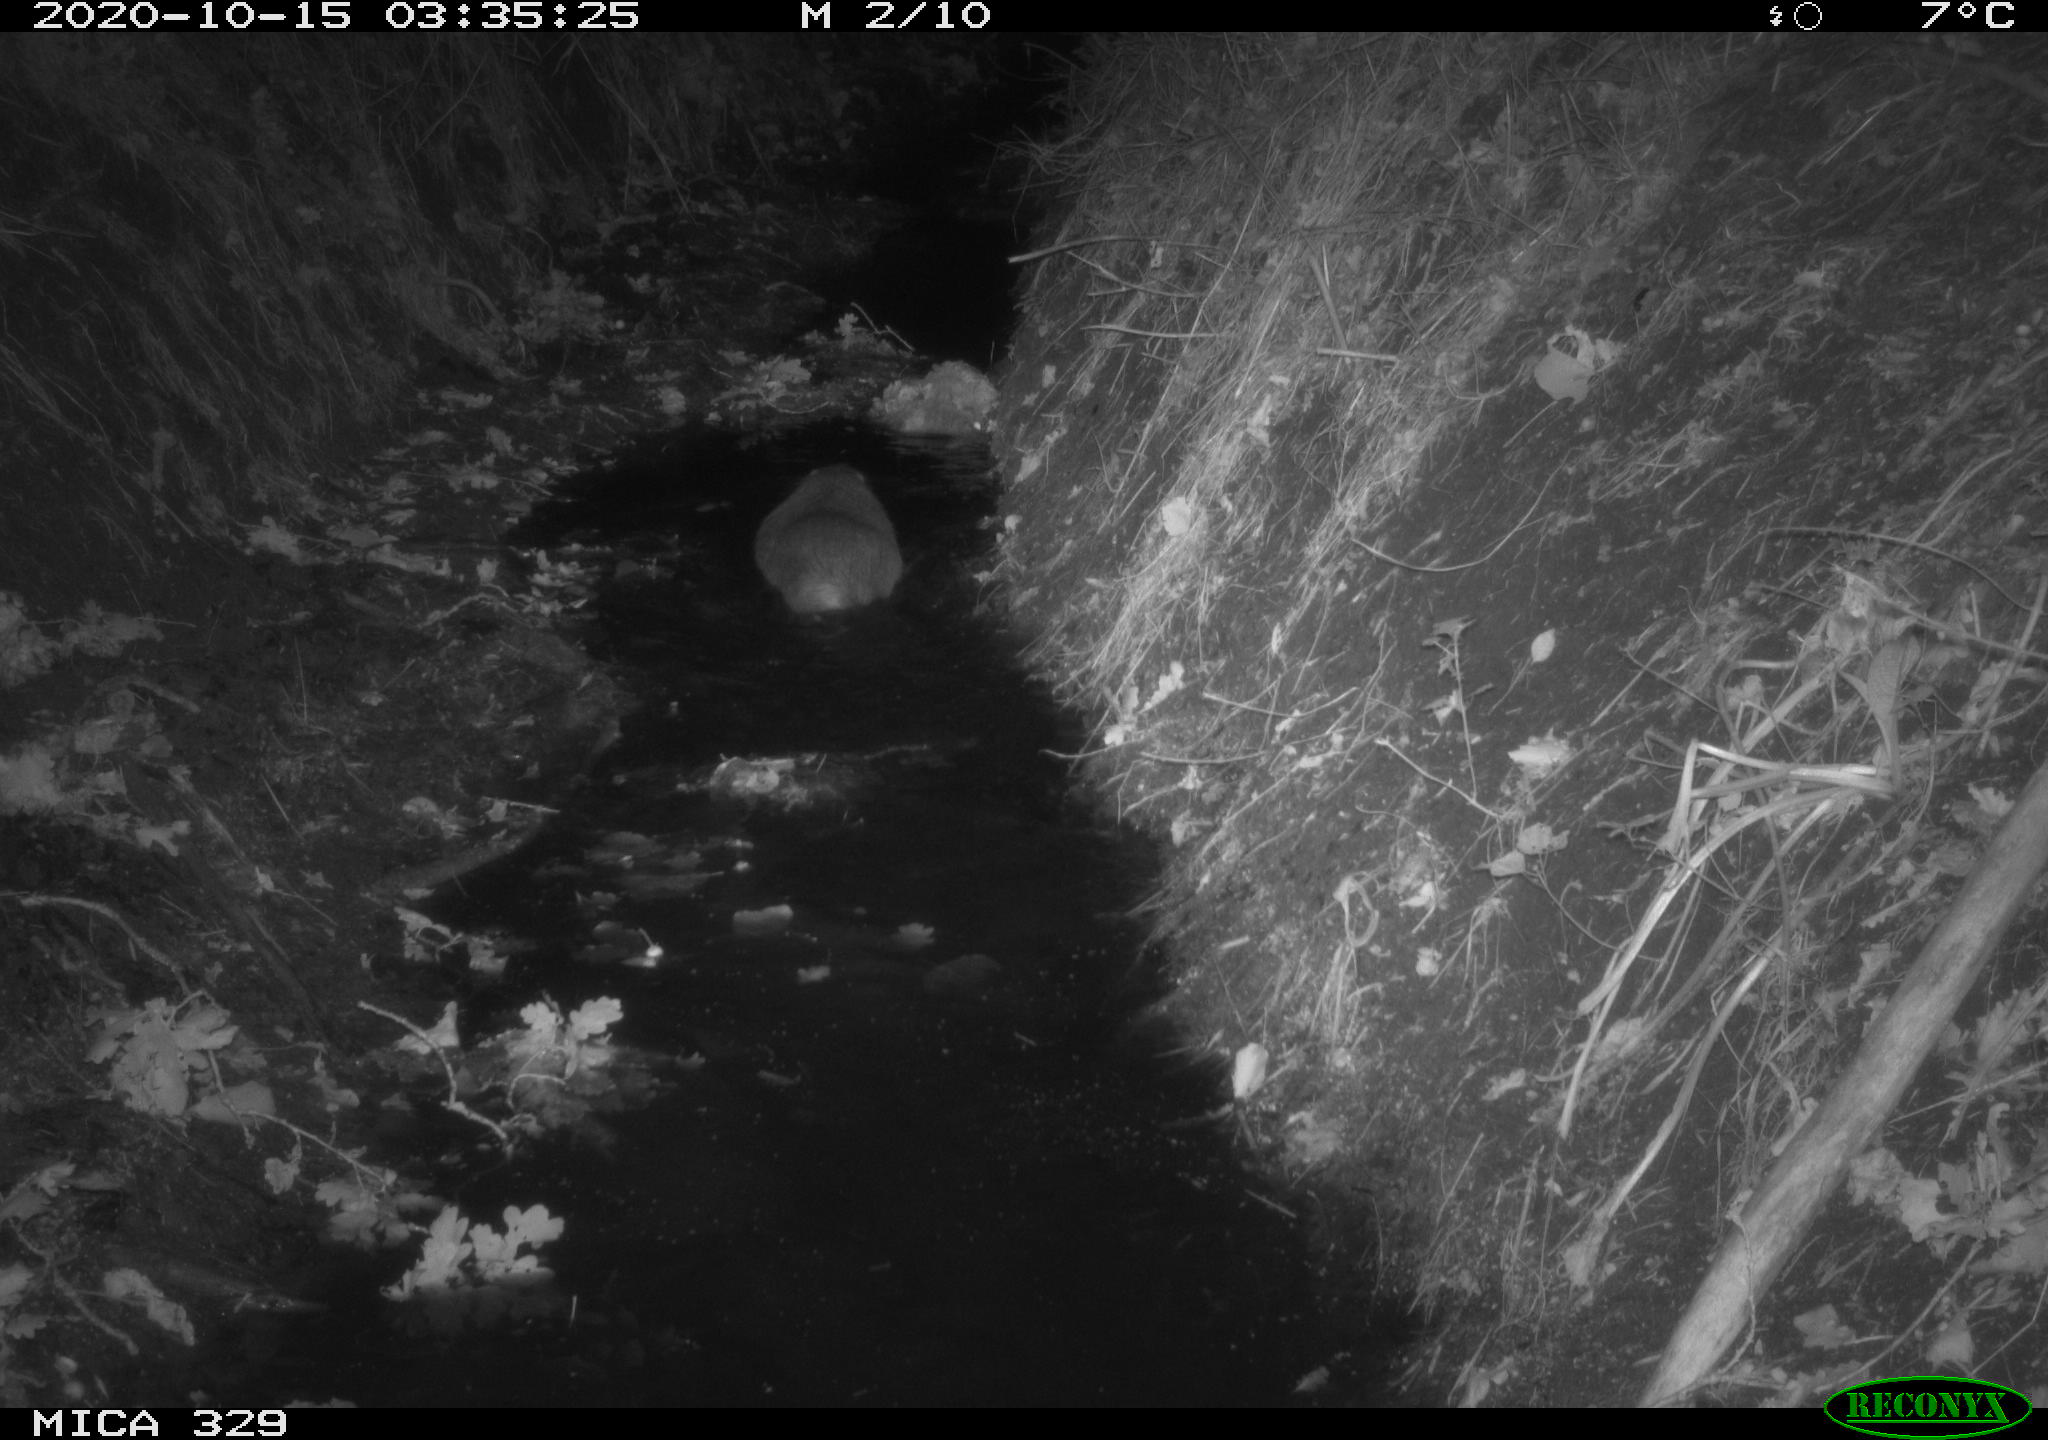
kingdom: Animalia
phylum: Chordata
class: Mammalia
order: Rodentia
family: Myocastoridae
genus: Myocastor
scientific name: Myocastor coypus
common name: Coypu
